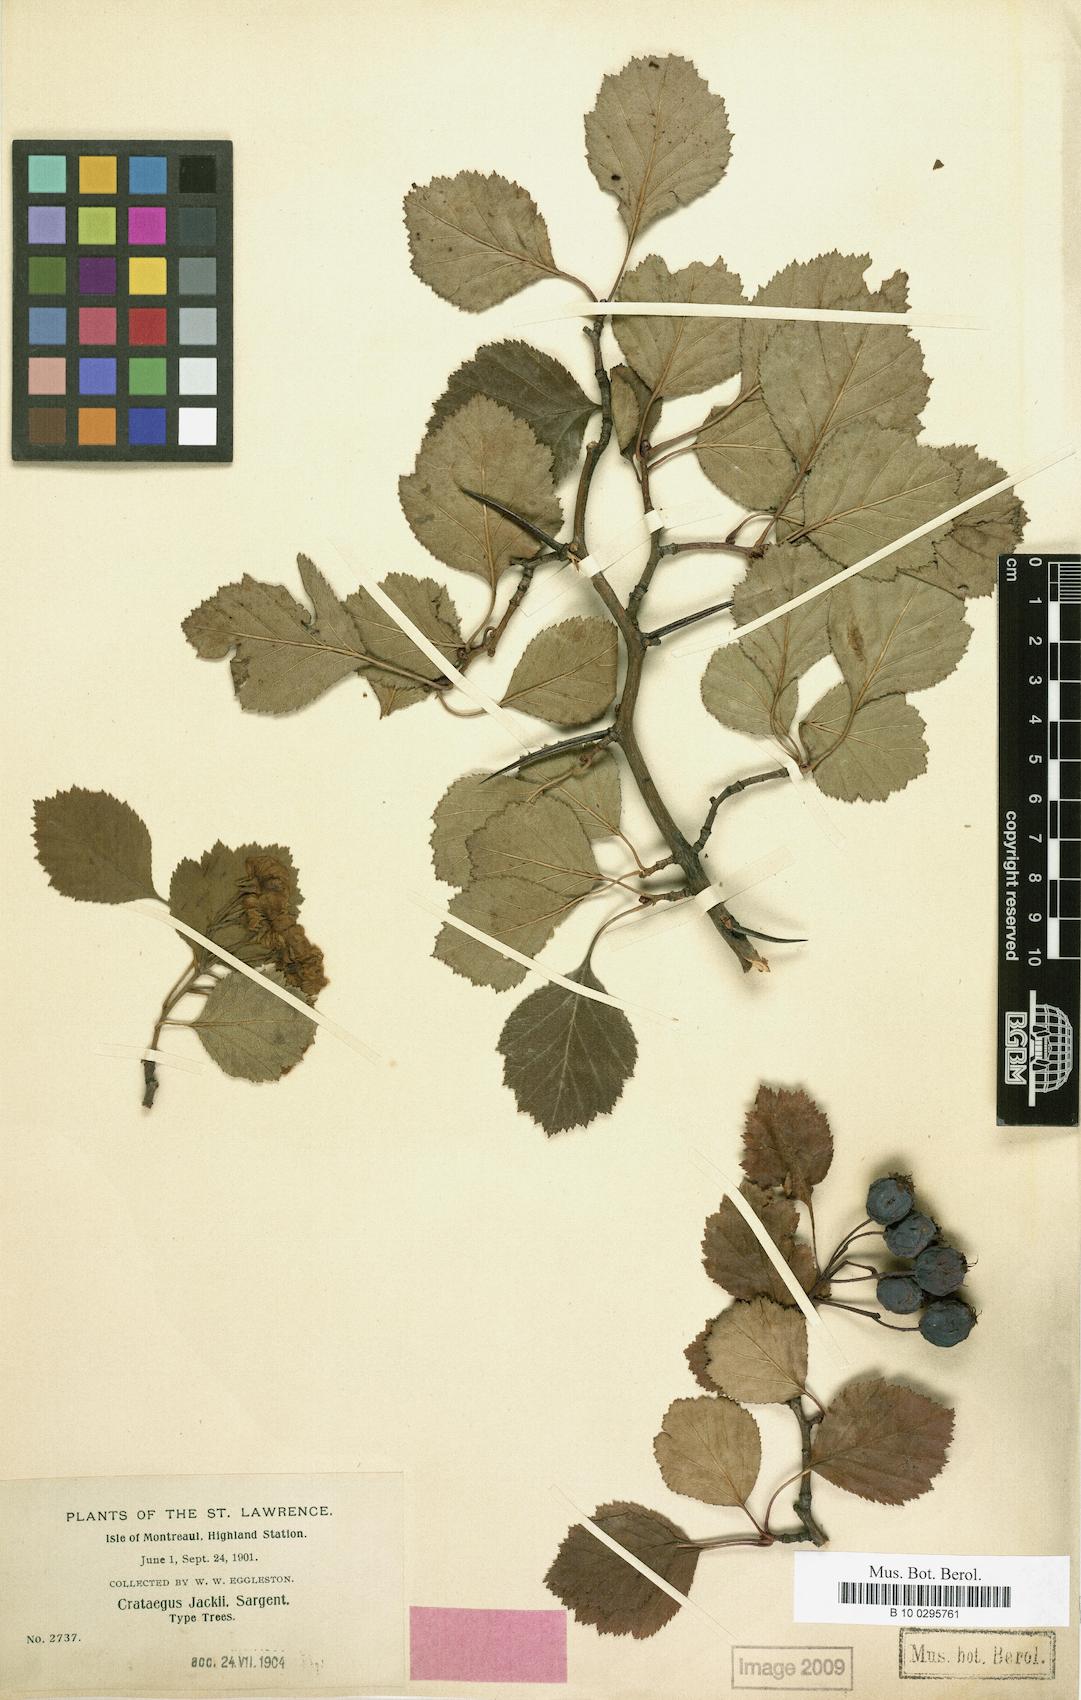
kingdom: Plantae
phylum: Tracheophyta
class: Magnoliopsida
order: Rosales
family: Rosaceae
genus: Crataegus
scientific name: Crataegus lumaria
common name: Jack's hawthorn
